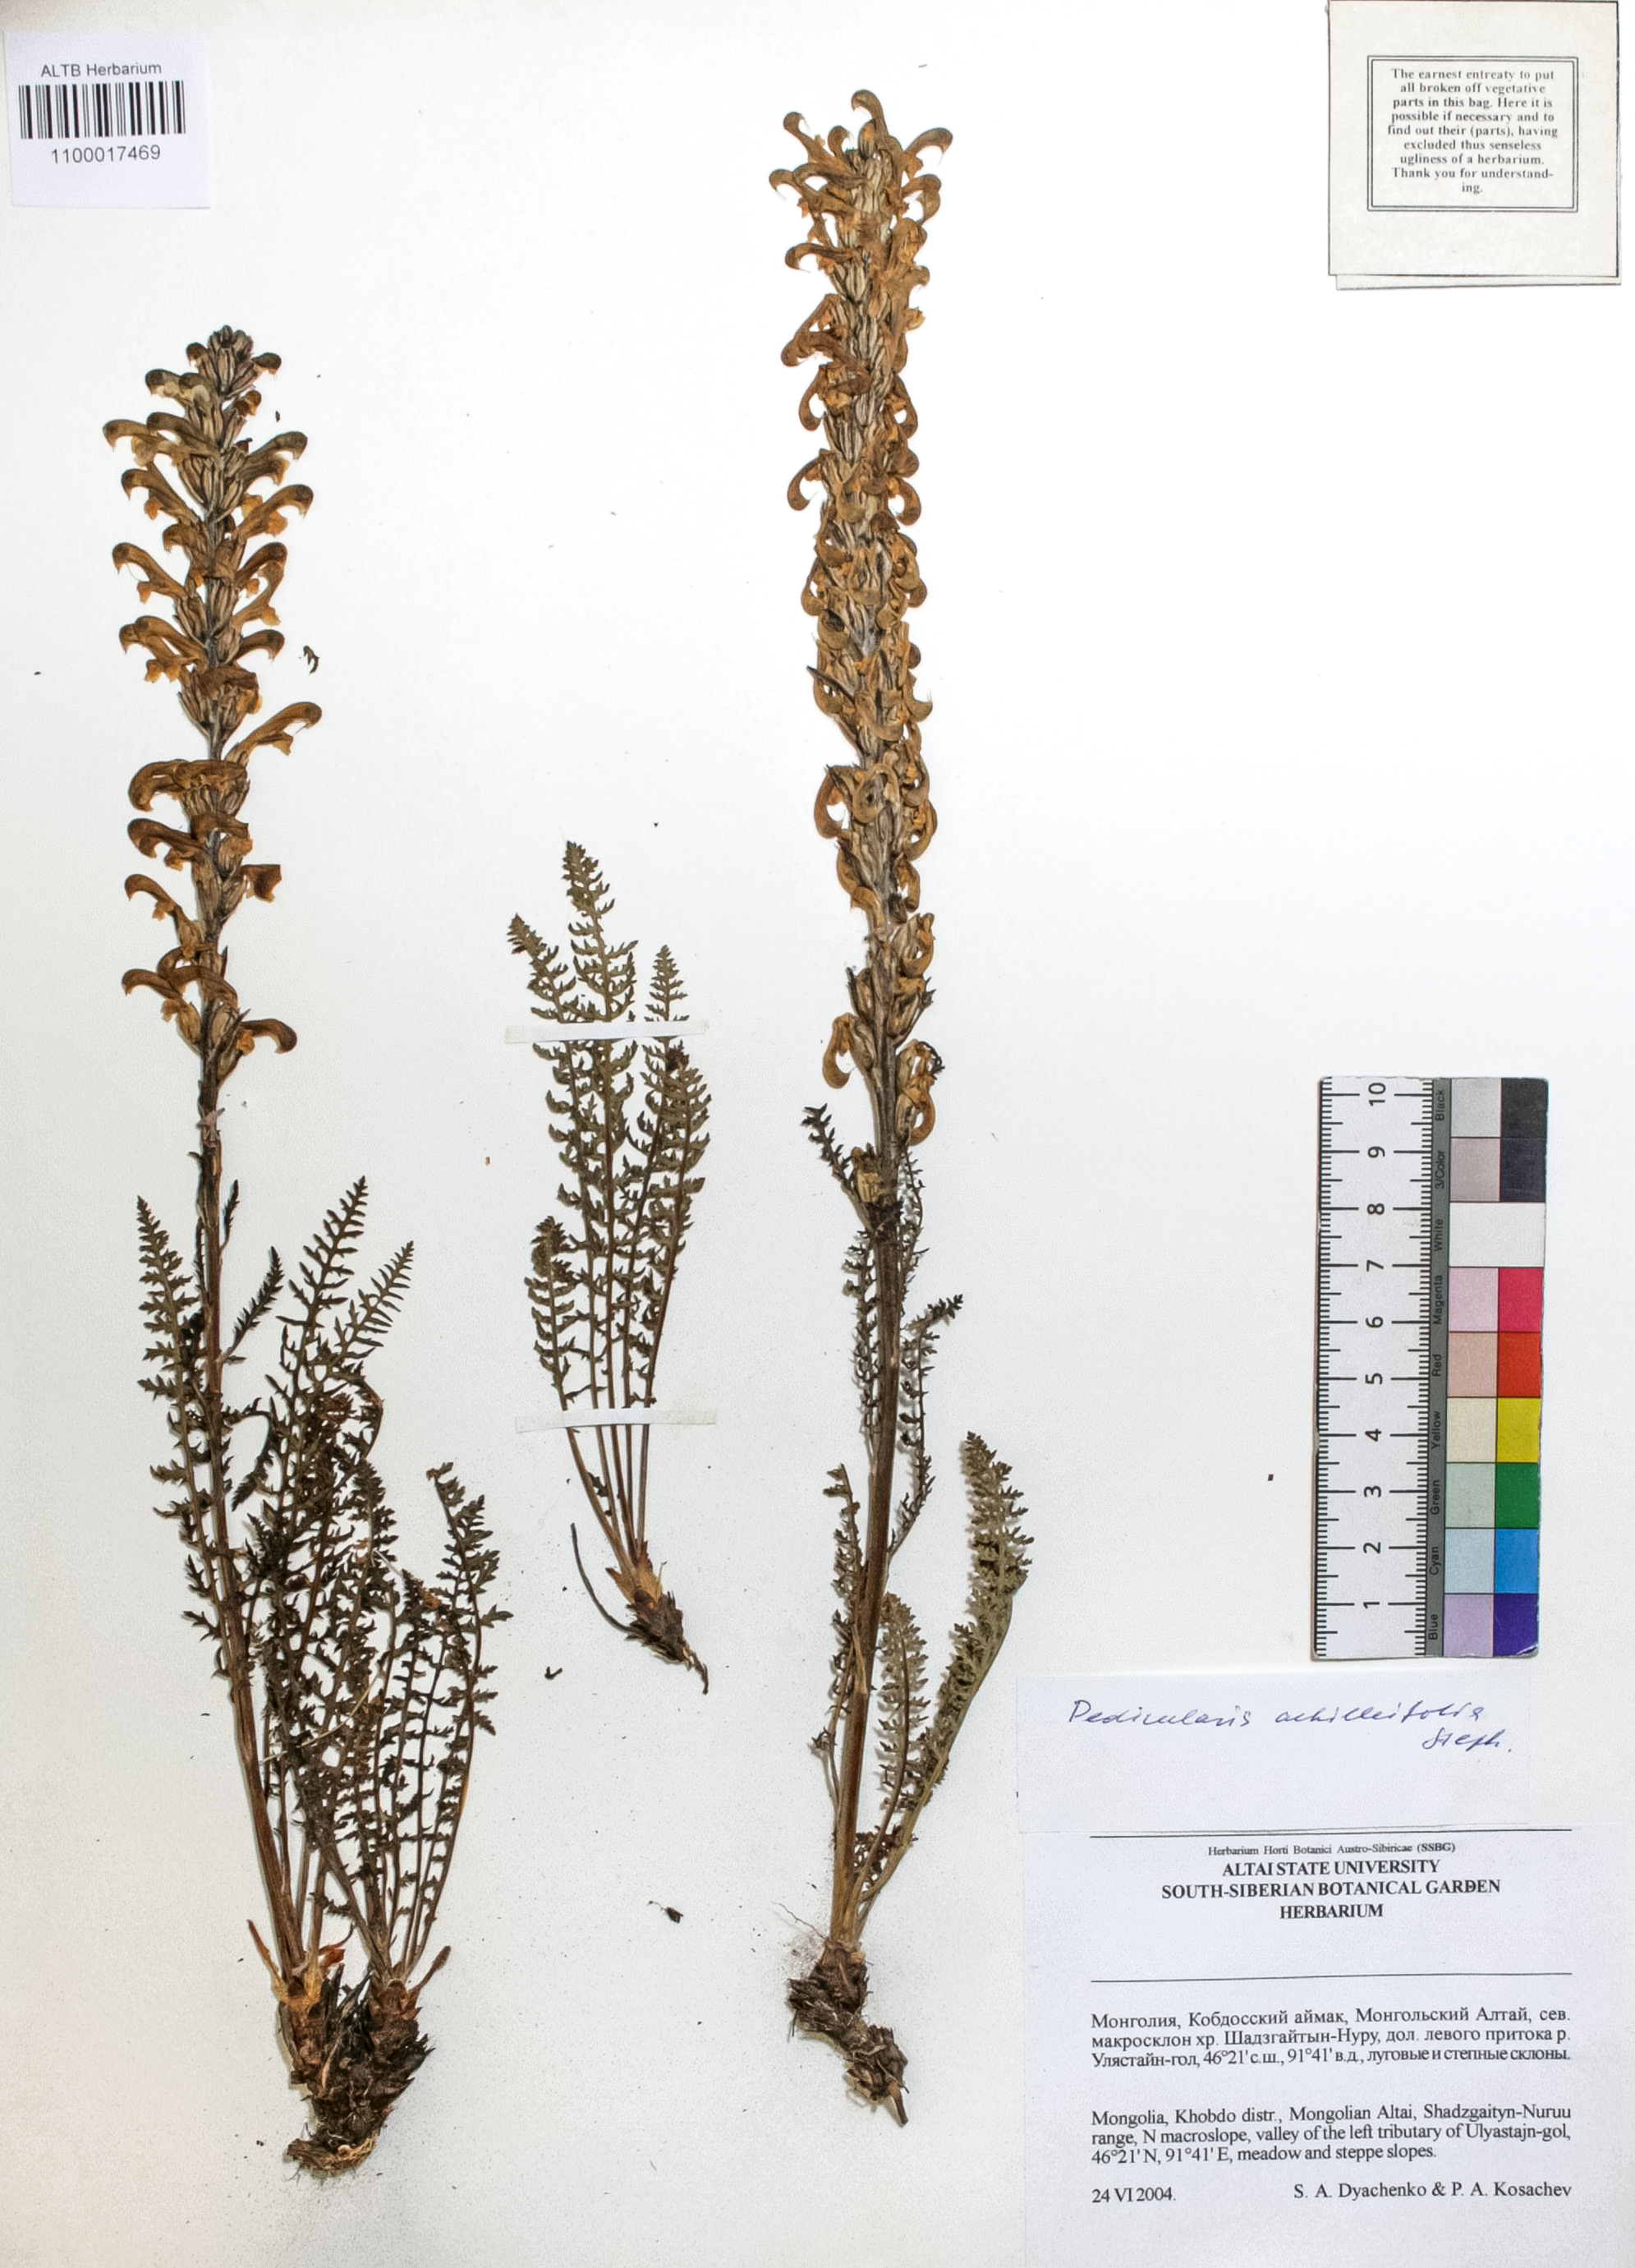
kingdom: Plantae
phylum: Tracheophyta
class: Magnoliopsida
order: Lamiales
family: Orobanchaceae
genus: Pedicularis
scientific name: Pedicularis achilleifolia
